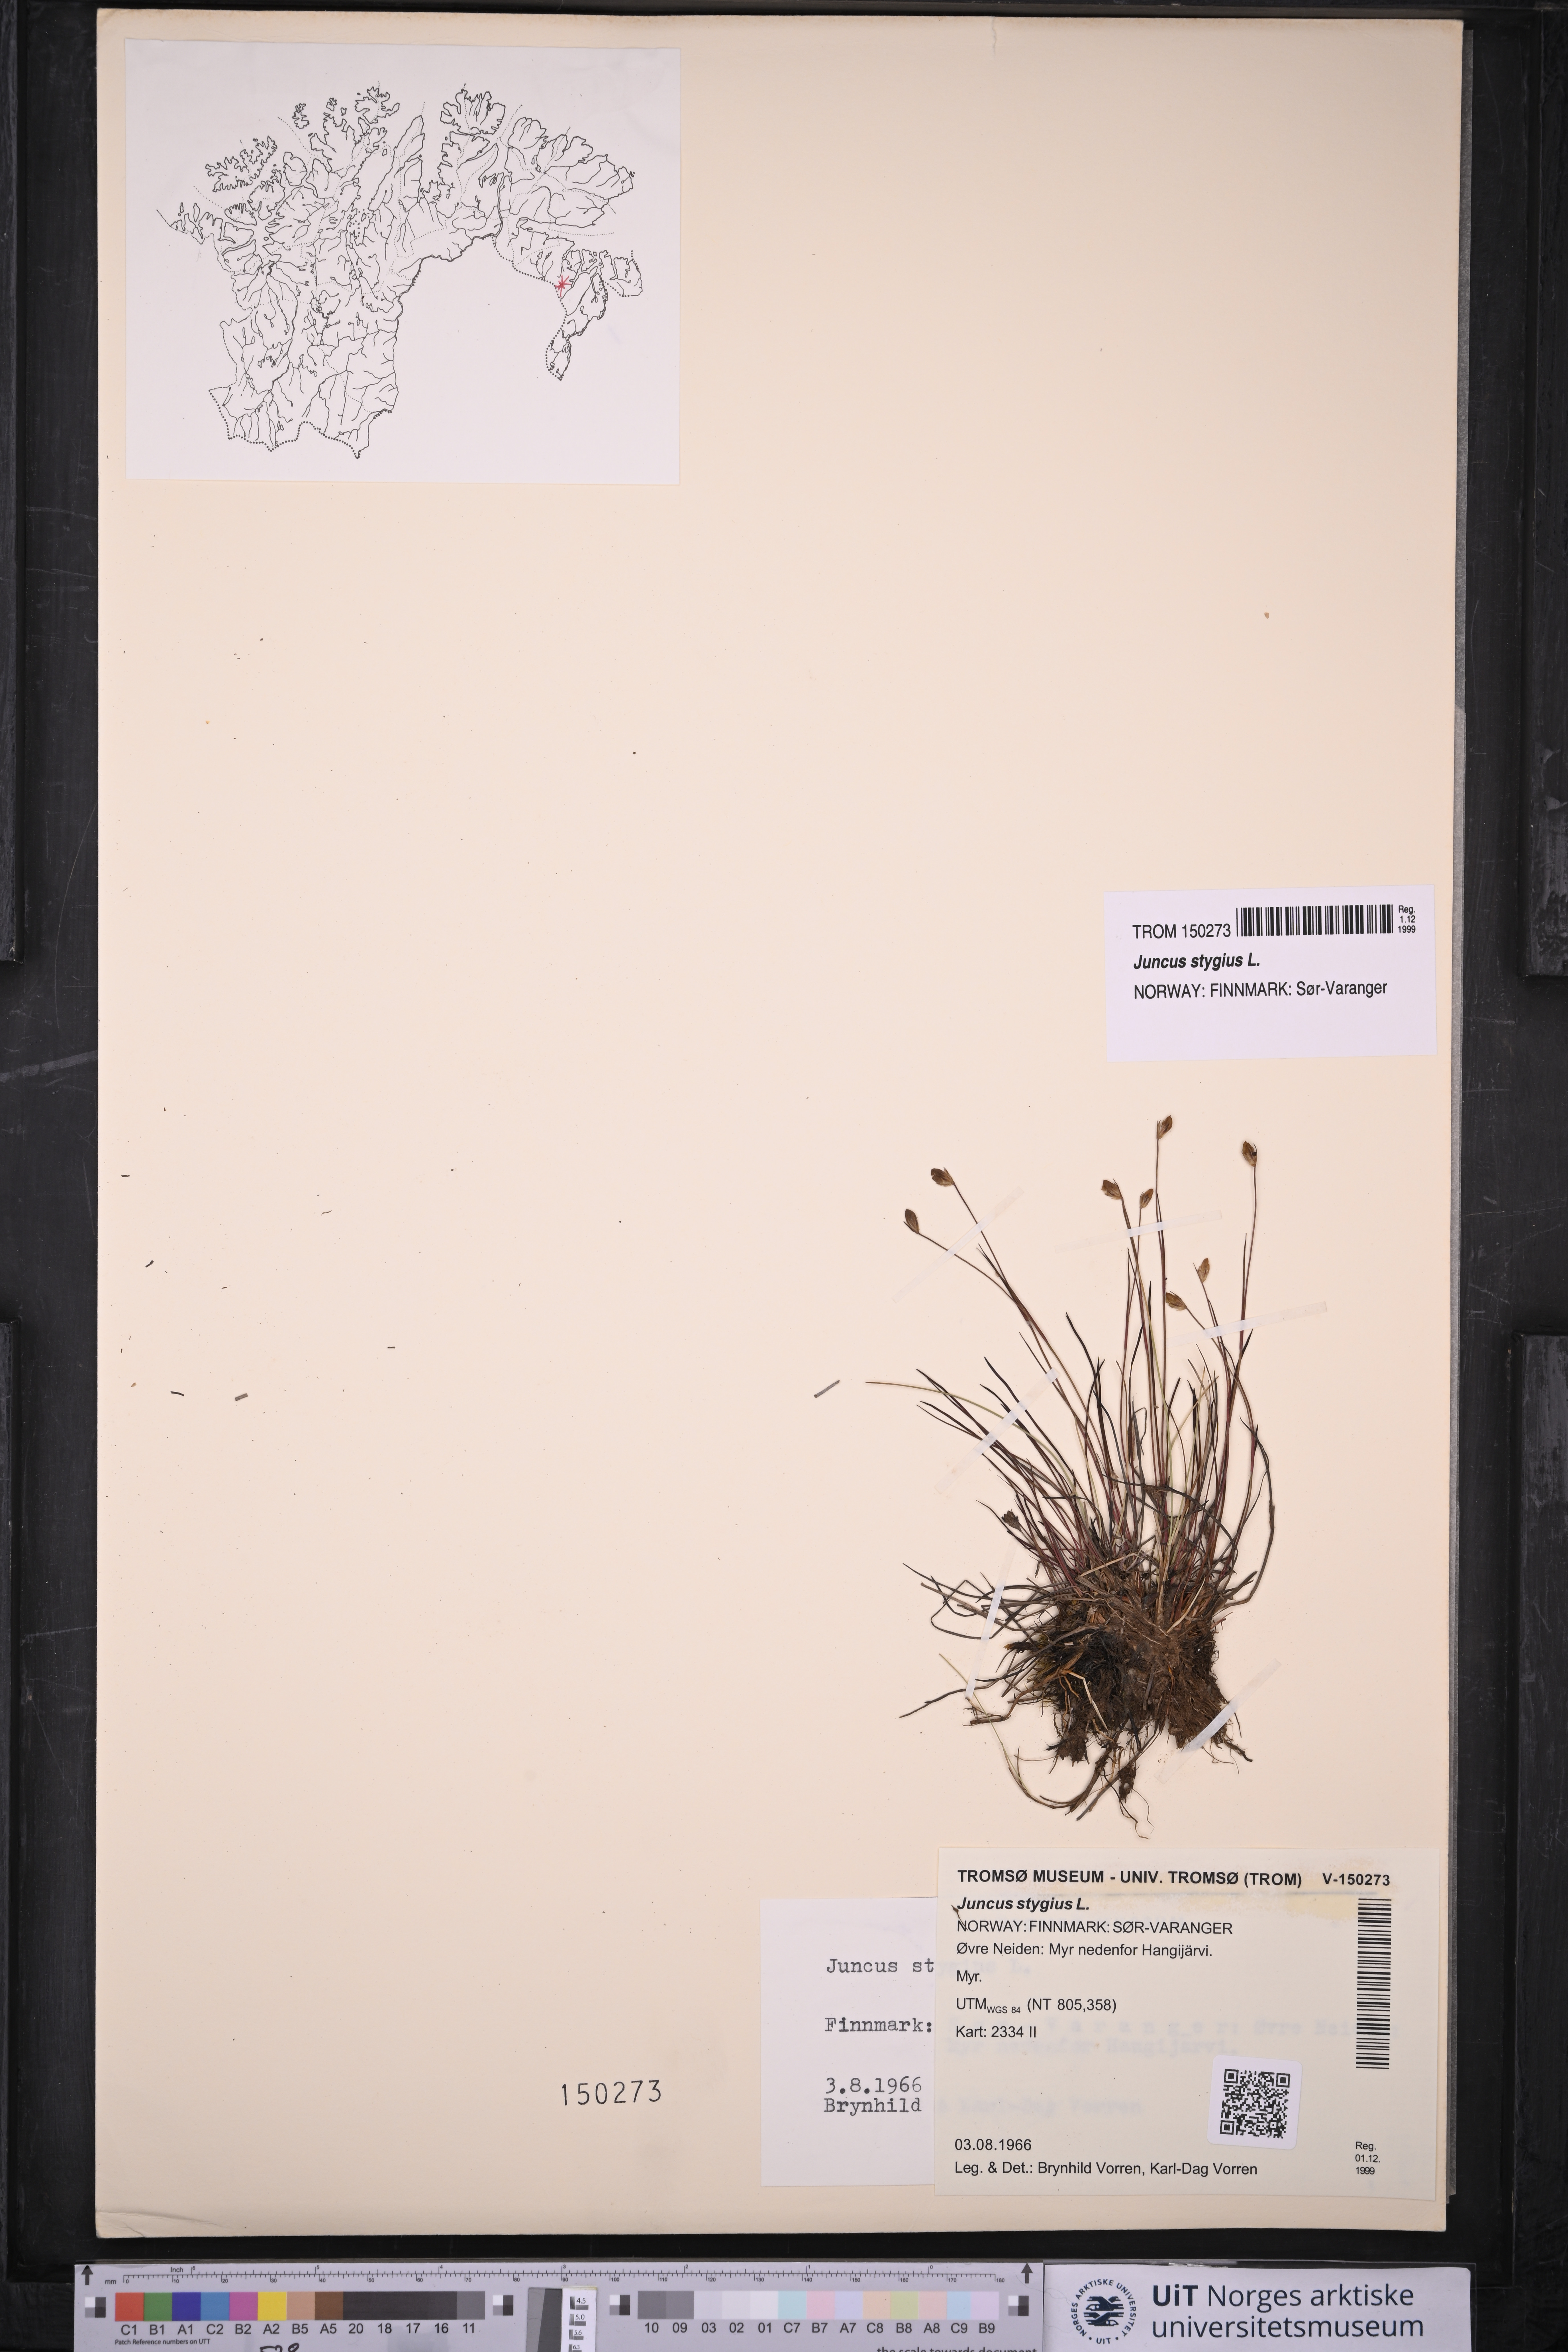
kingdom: Plantae
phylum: Tracheophyta
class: Liliopsida
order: Poales
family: Juncaceae
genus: Juncus
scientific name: Juncus stygius
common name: Bog rush
